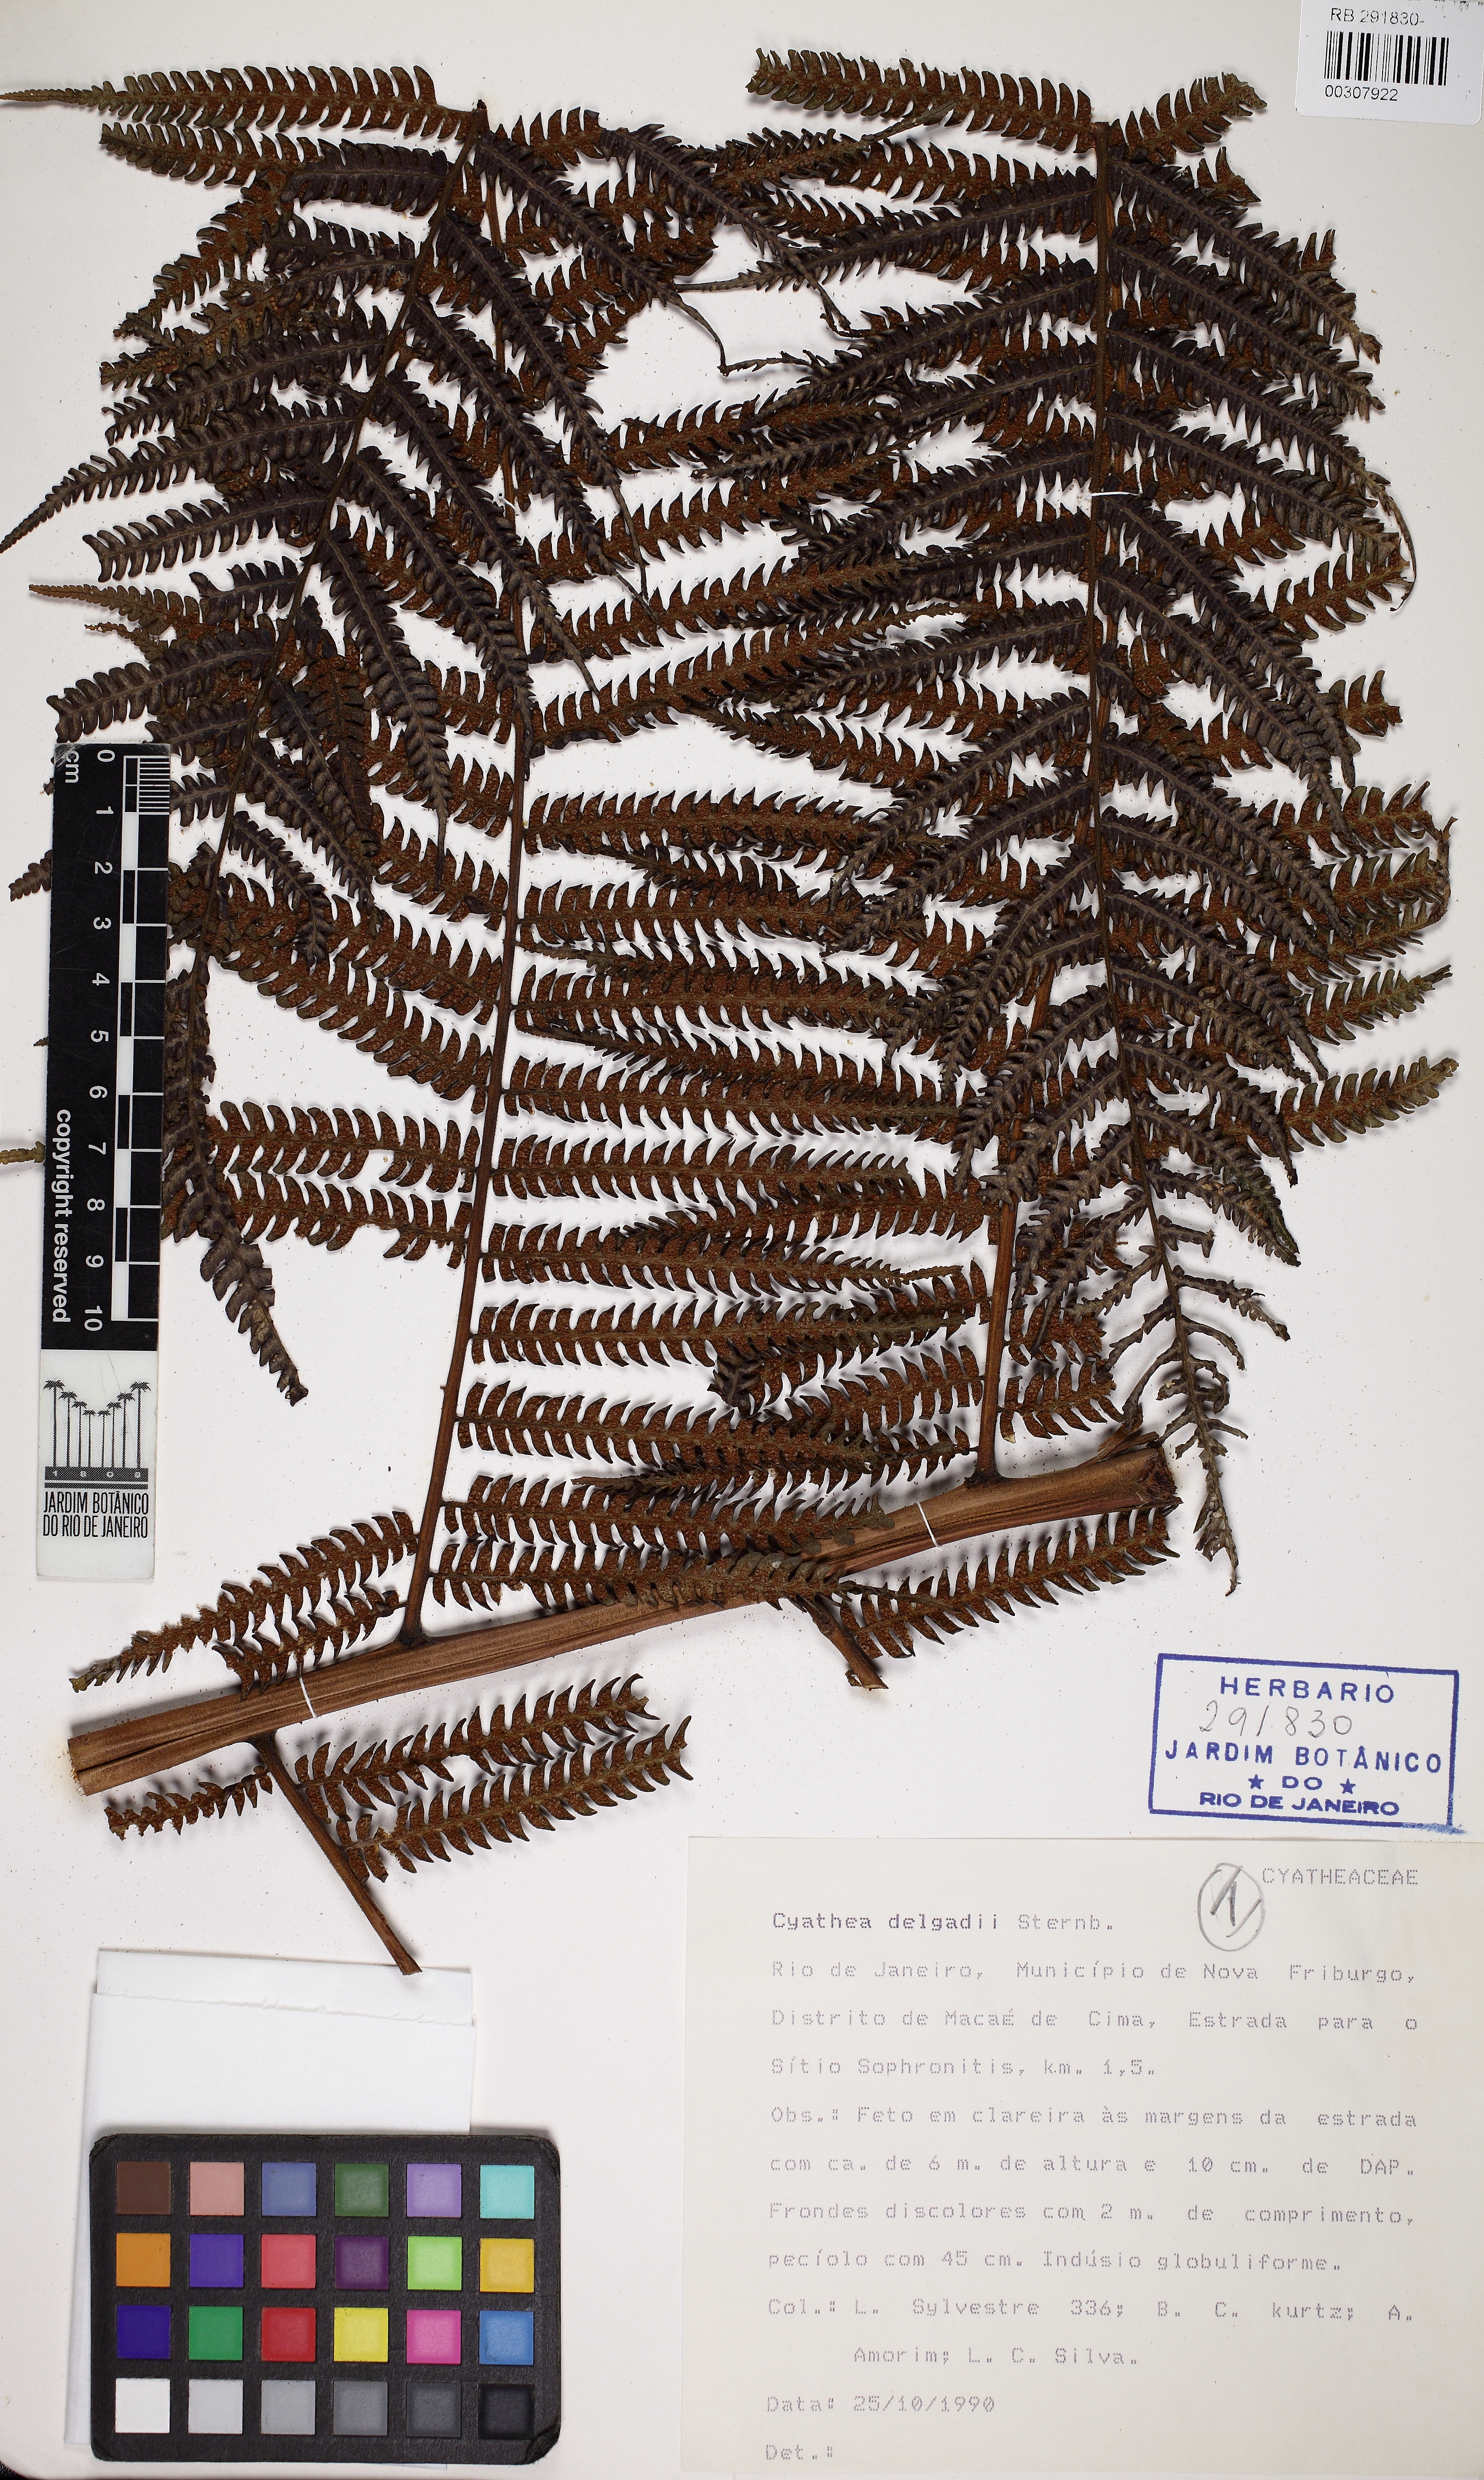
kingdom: Plantae
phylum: Tracheophyta
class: Polypodiopsida
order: Cyatheales
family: Cyatheaceae
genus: Cyathea
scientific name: Cyathea delgadii
